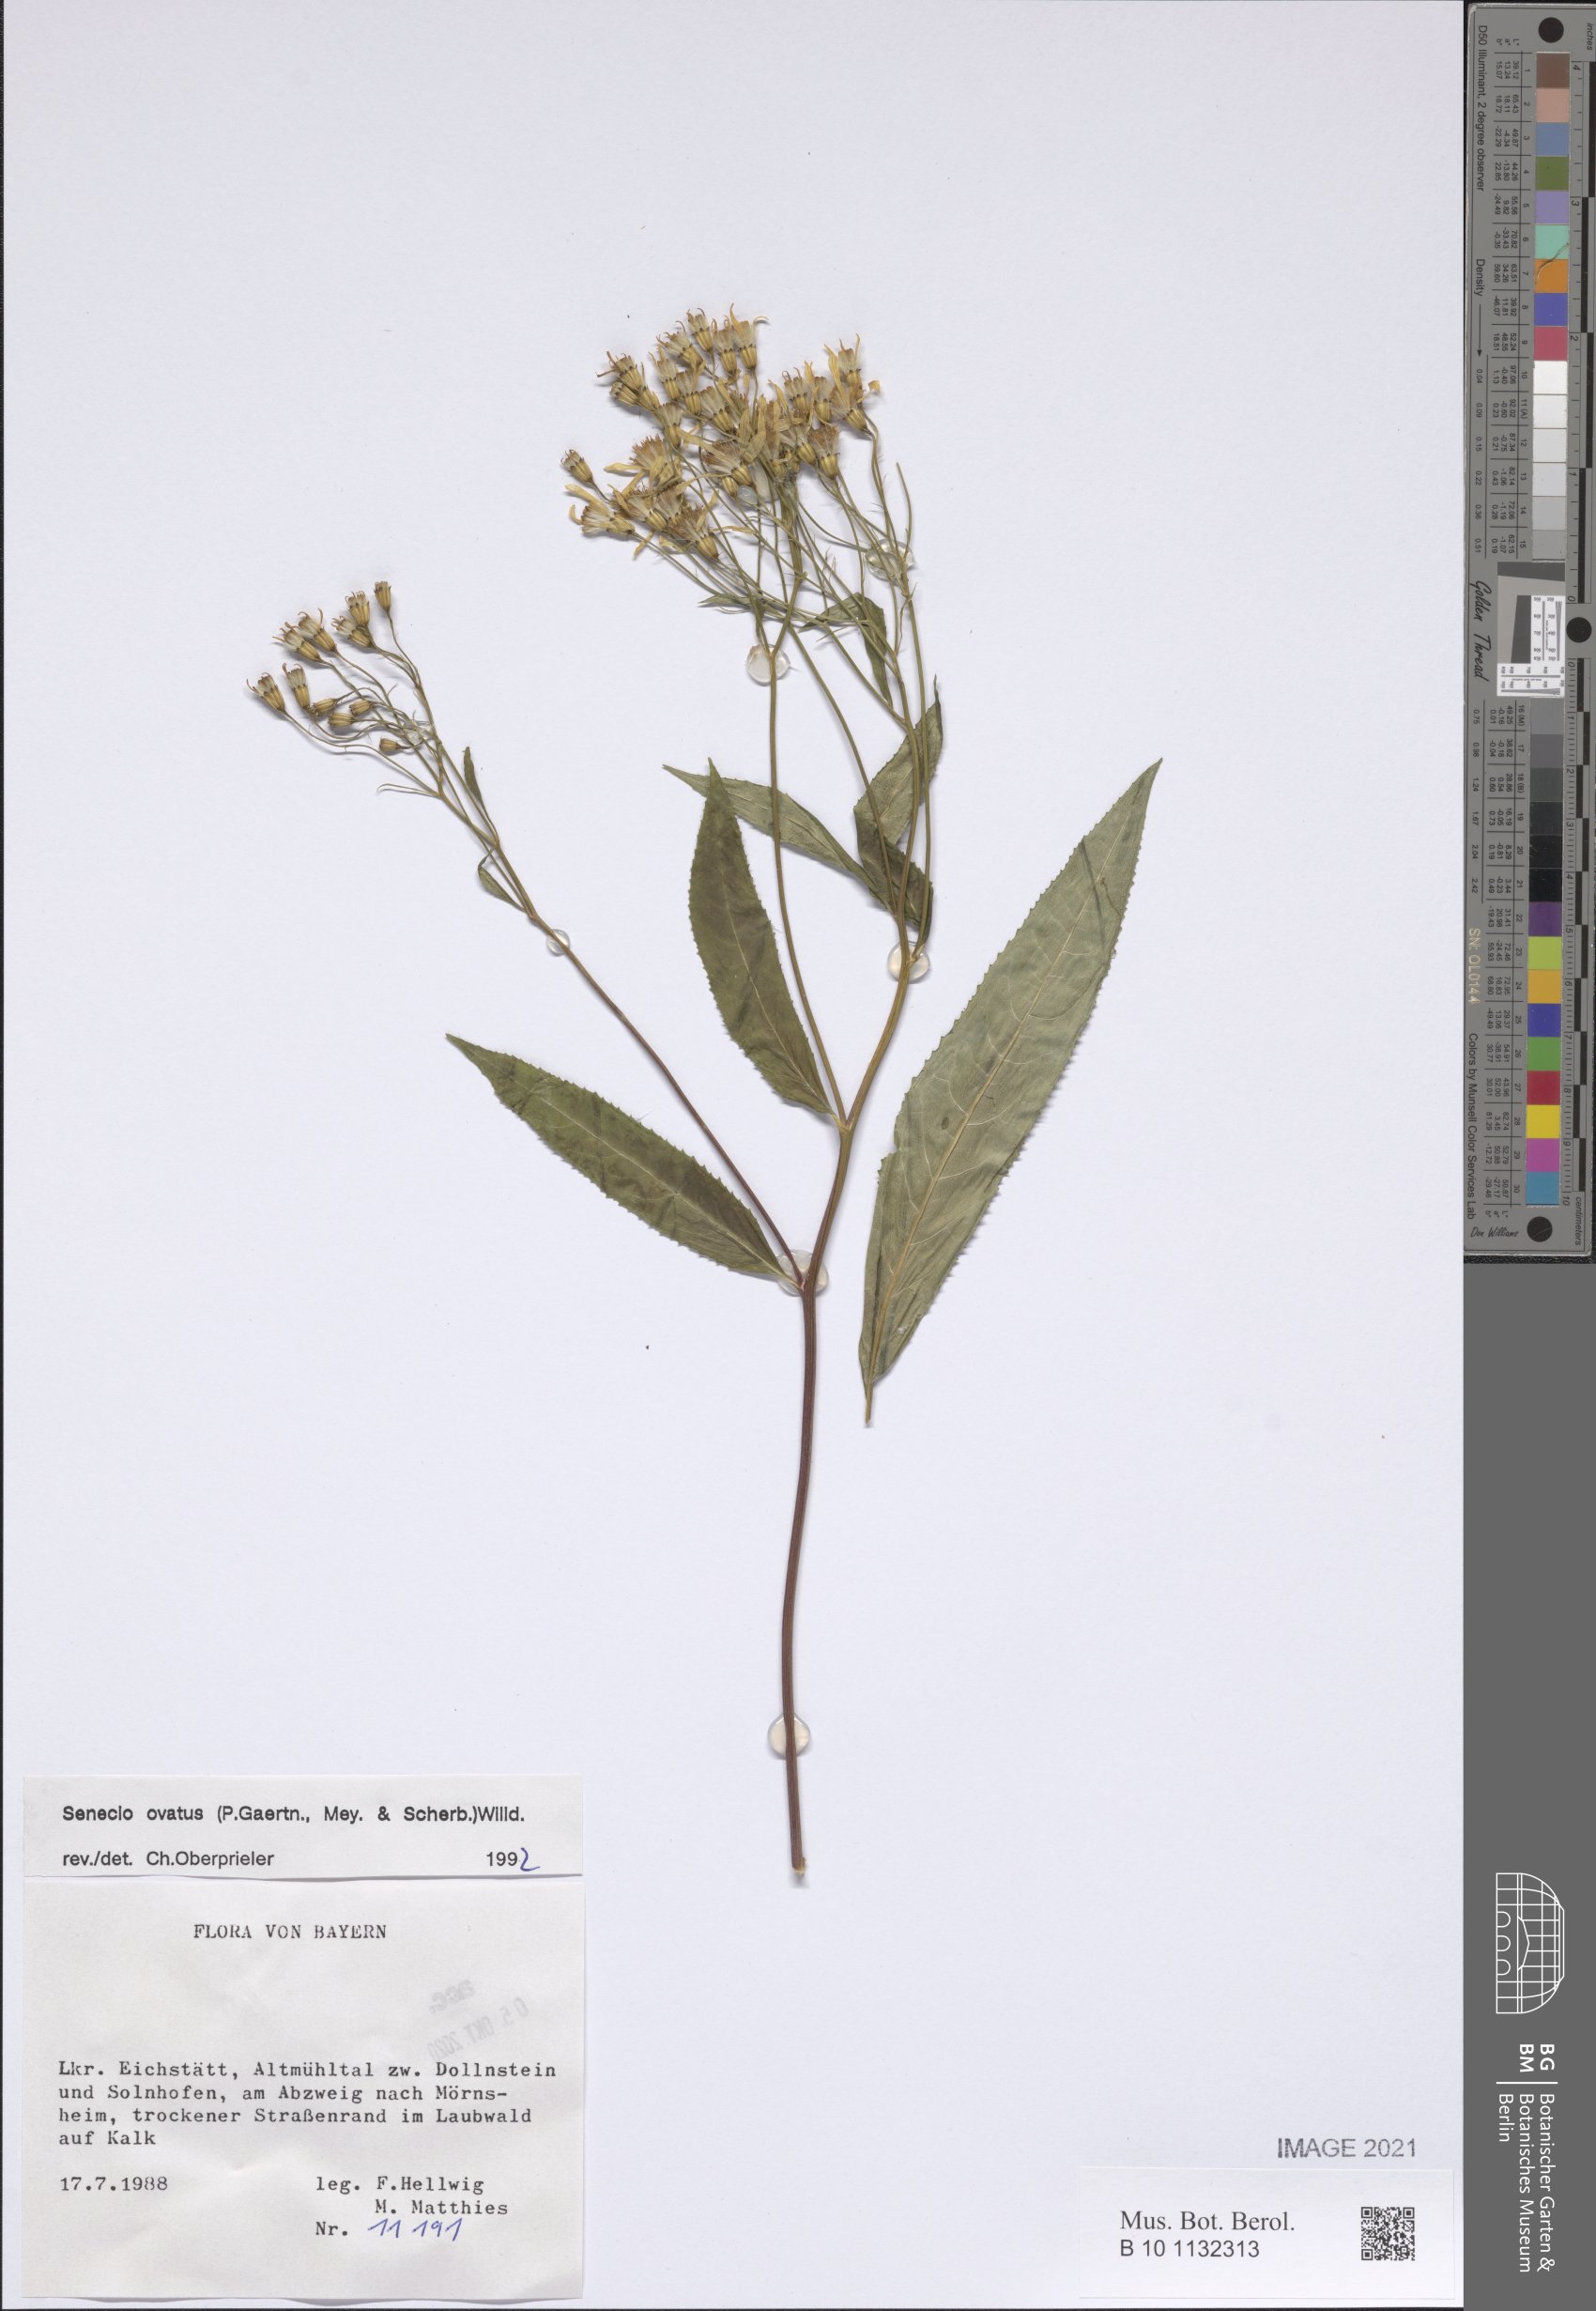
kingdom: Plantae
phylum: Tracheophyta
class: Magnoliopsida
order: Asterales
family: Asteraceae
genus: Senecio
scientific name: Senecio ovatus
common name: Wood ragwort
